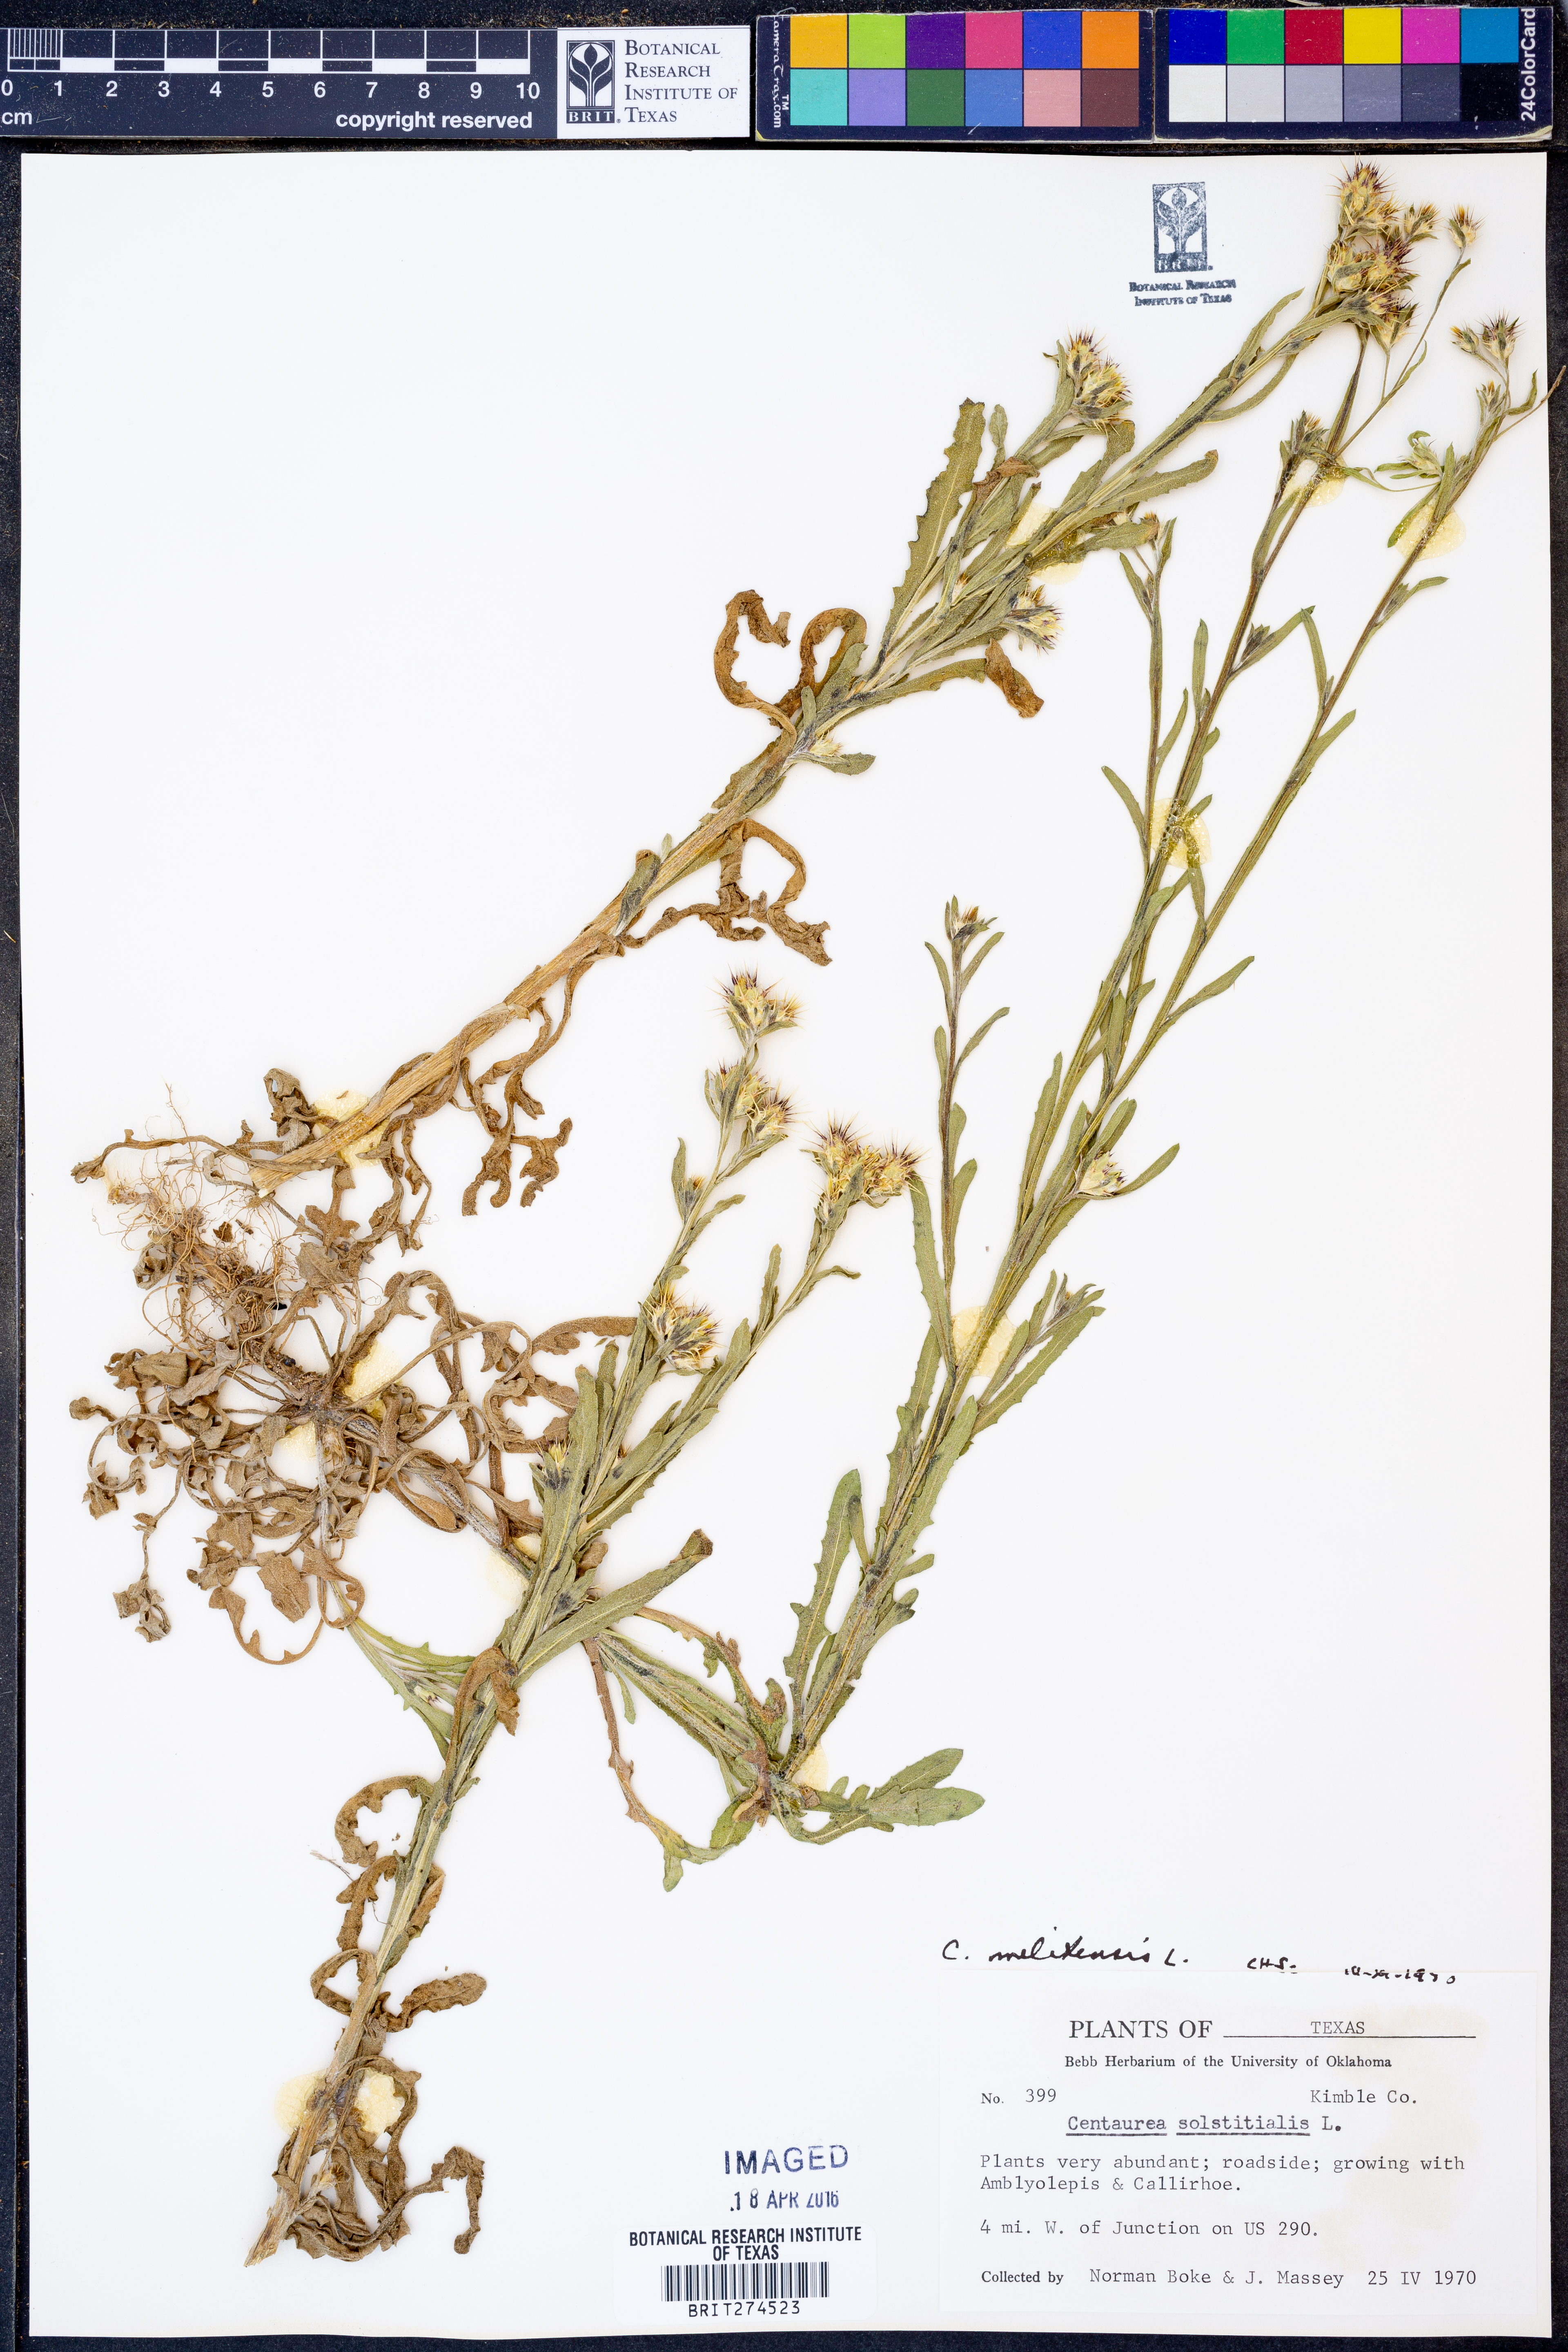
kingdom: Plantae
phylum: Tracheophyta
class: Magnoliopsida
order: Asterales
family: Asteraceae
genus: Centaurea
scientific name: Centaurea melitensis
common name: Maltese star-thistle
